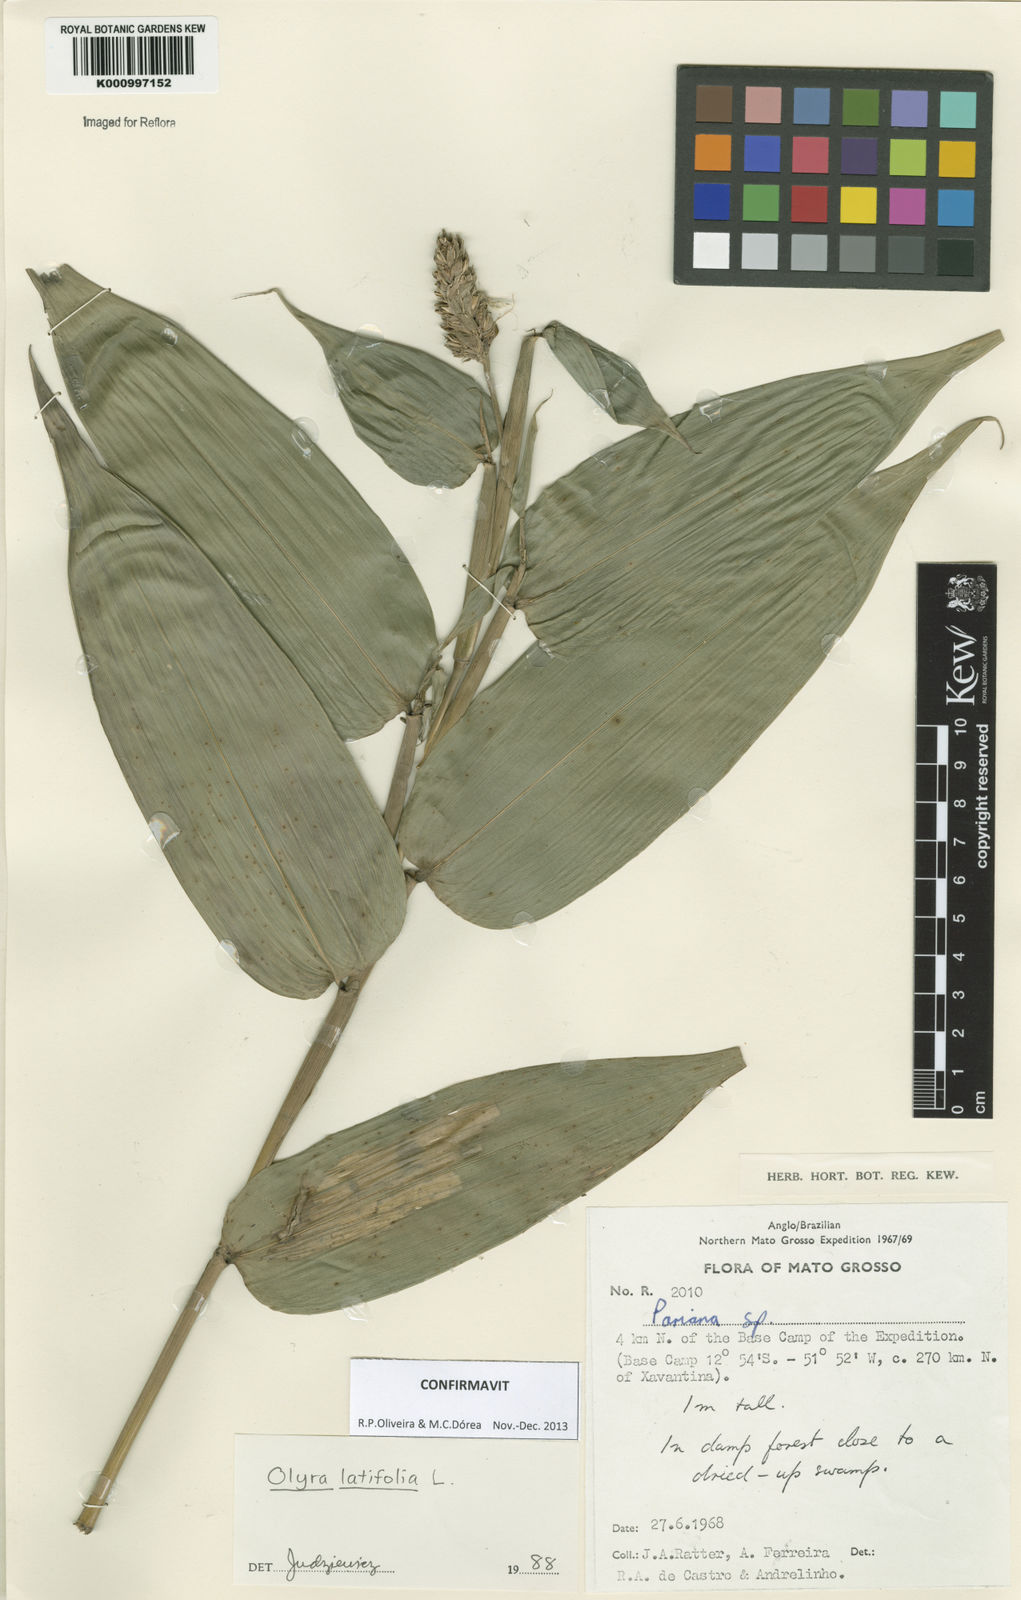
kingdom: Plantae
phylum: Tracheophyta
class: Liliopsida
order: Poales
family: Poaceae
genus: Olyra
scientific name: Olyra latifolia
